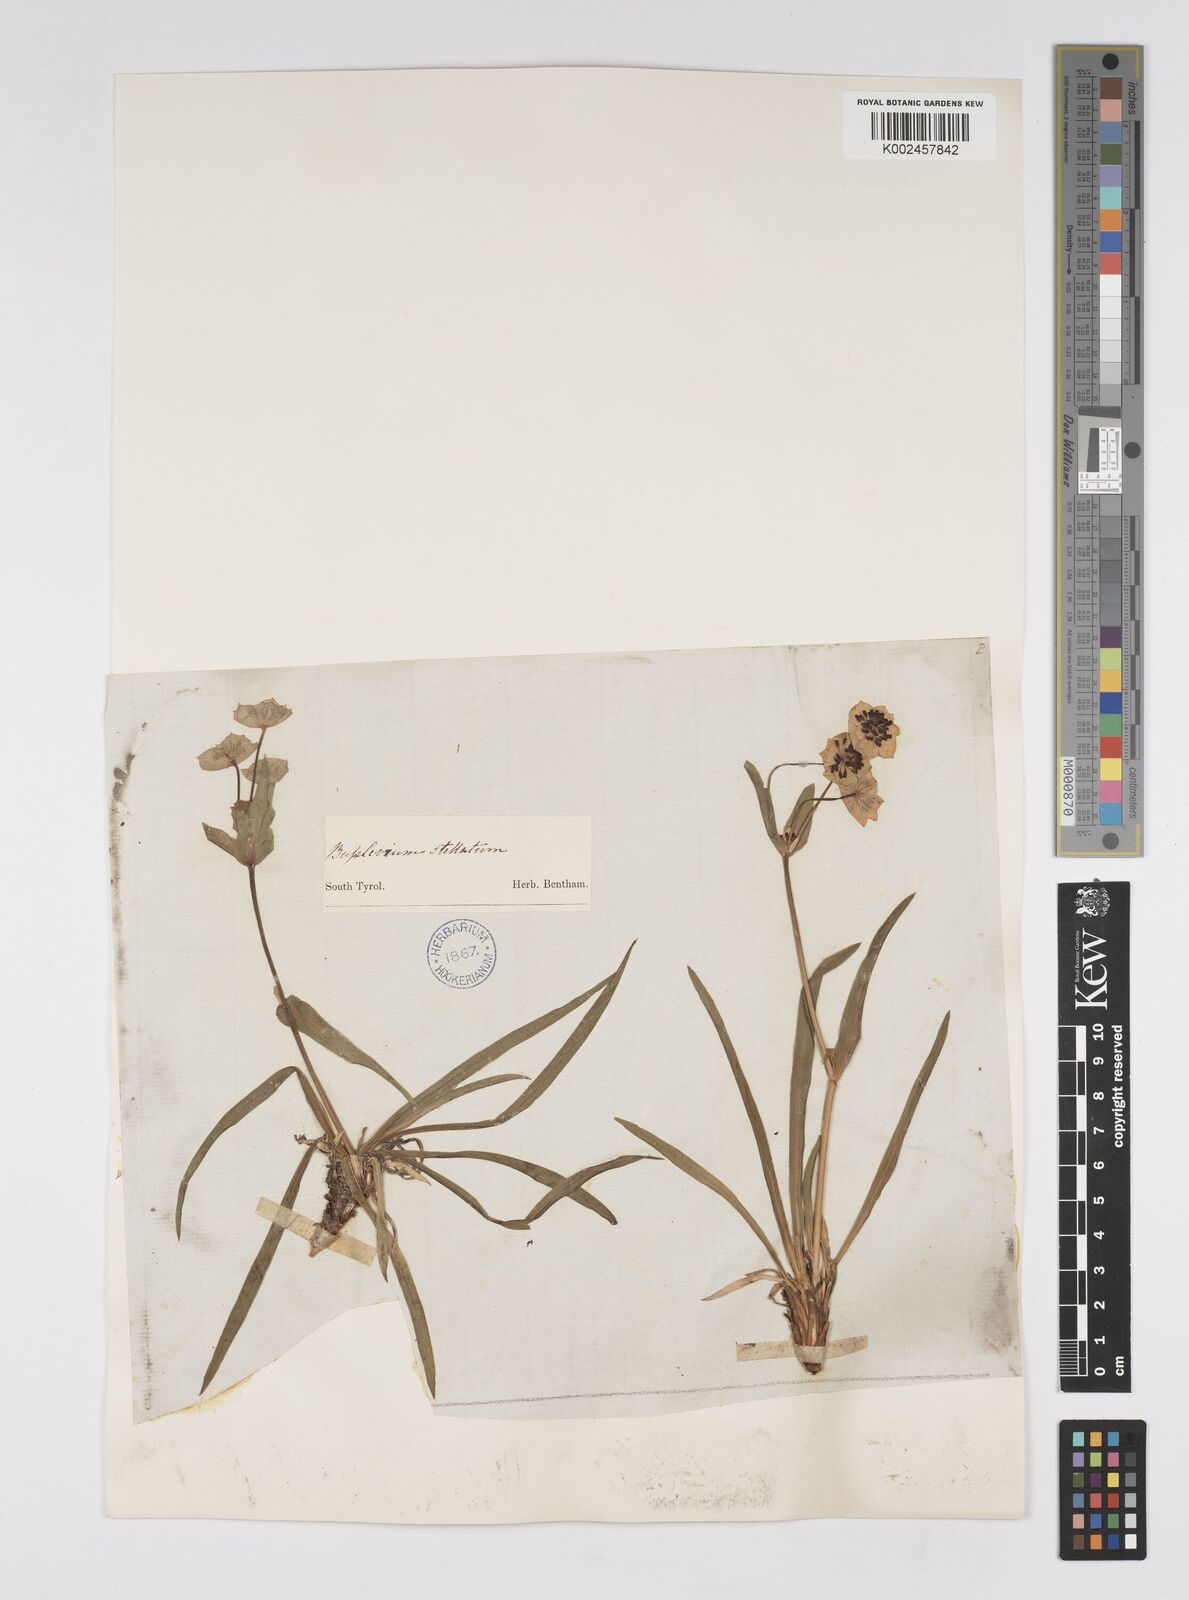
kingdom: Plantae
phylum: Tracheophyta
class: Magnoliopsida
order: Apiales
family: Apiaceae
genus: Bupleurum
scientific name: Bupleurum stellatum
